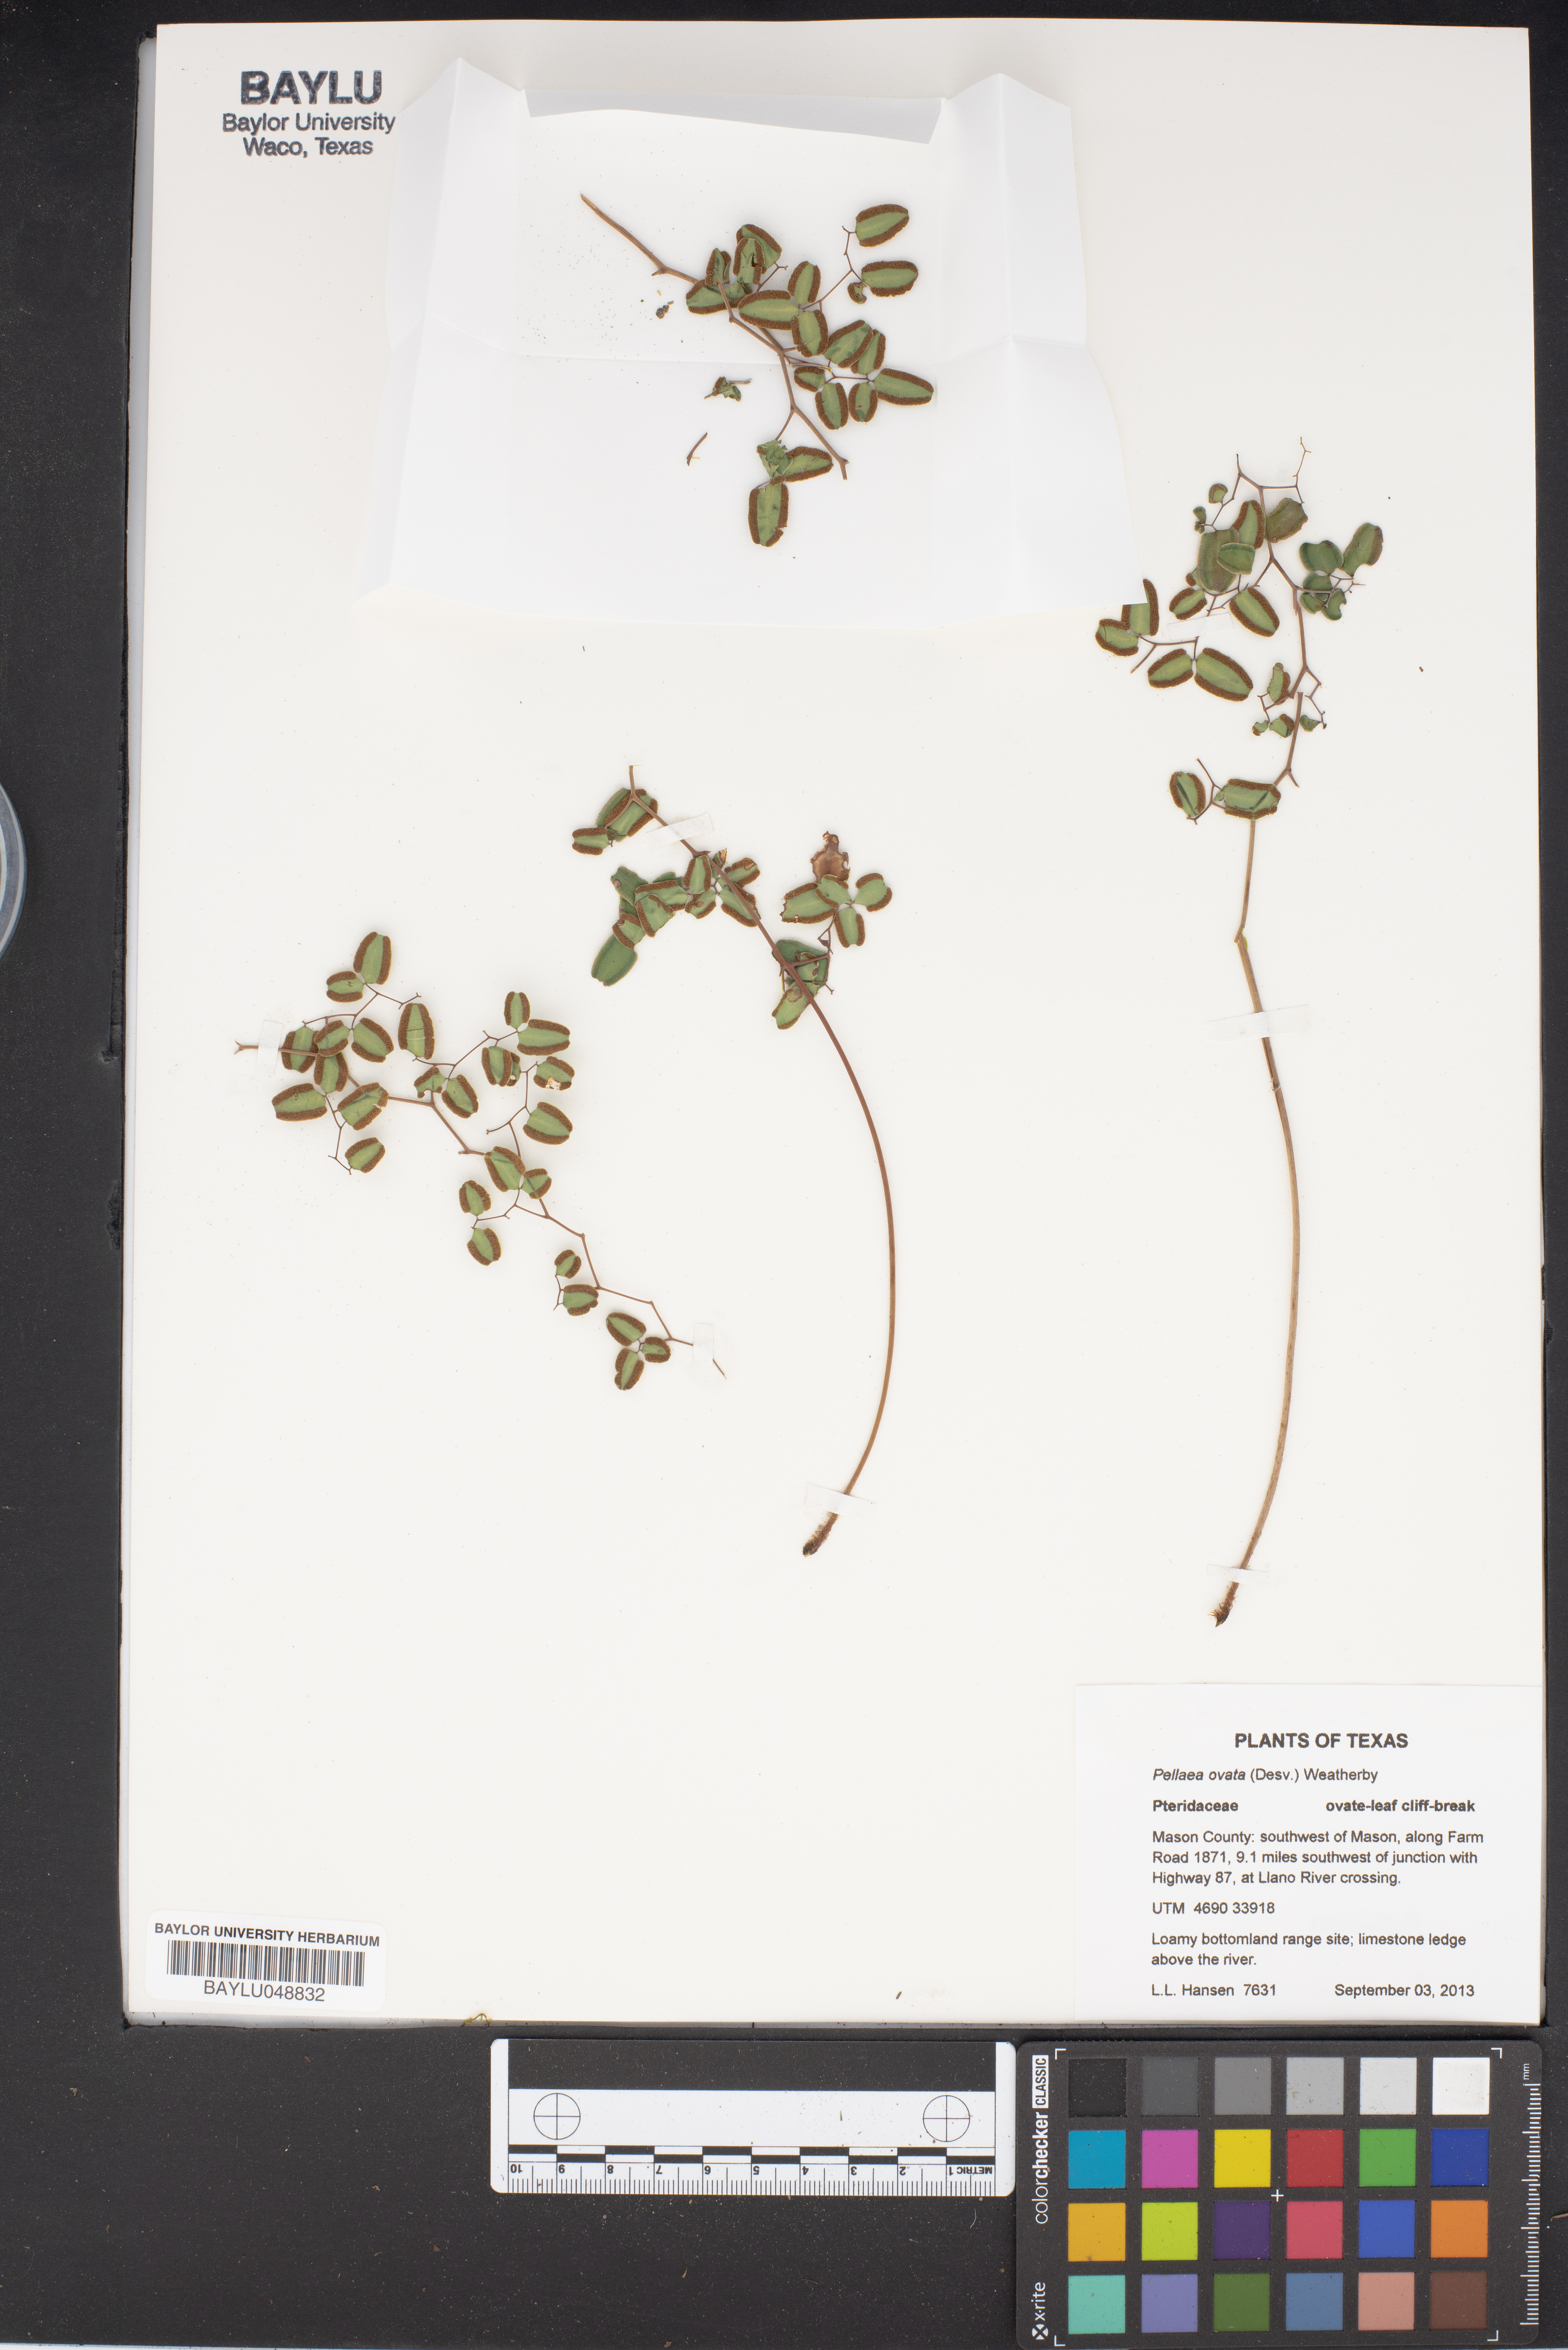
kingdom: Plantae
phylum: Tracheophyta
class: Polypodiopsida
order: Polypodiales
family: Pteridaceae
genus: Pellaea
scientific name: Pellaea ovata
